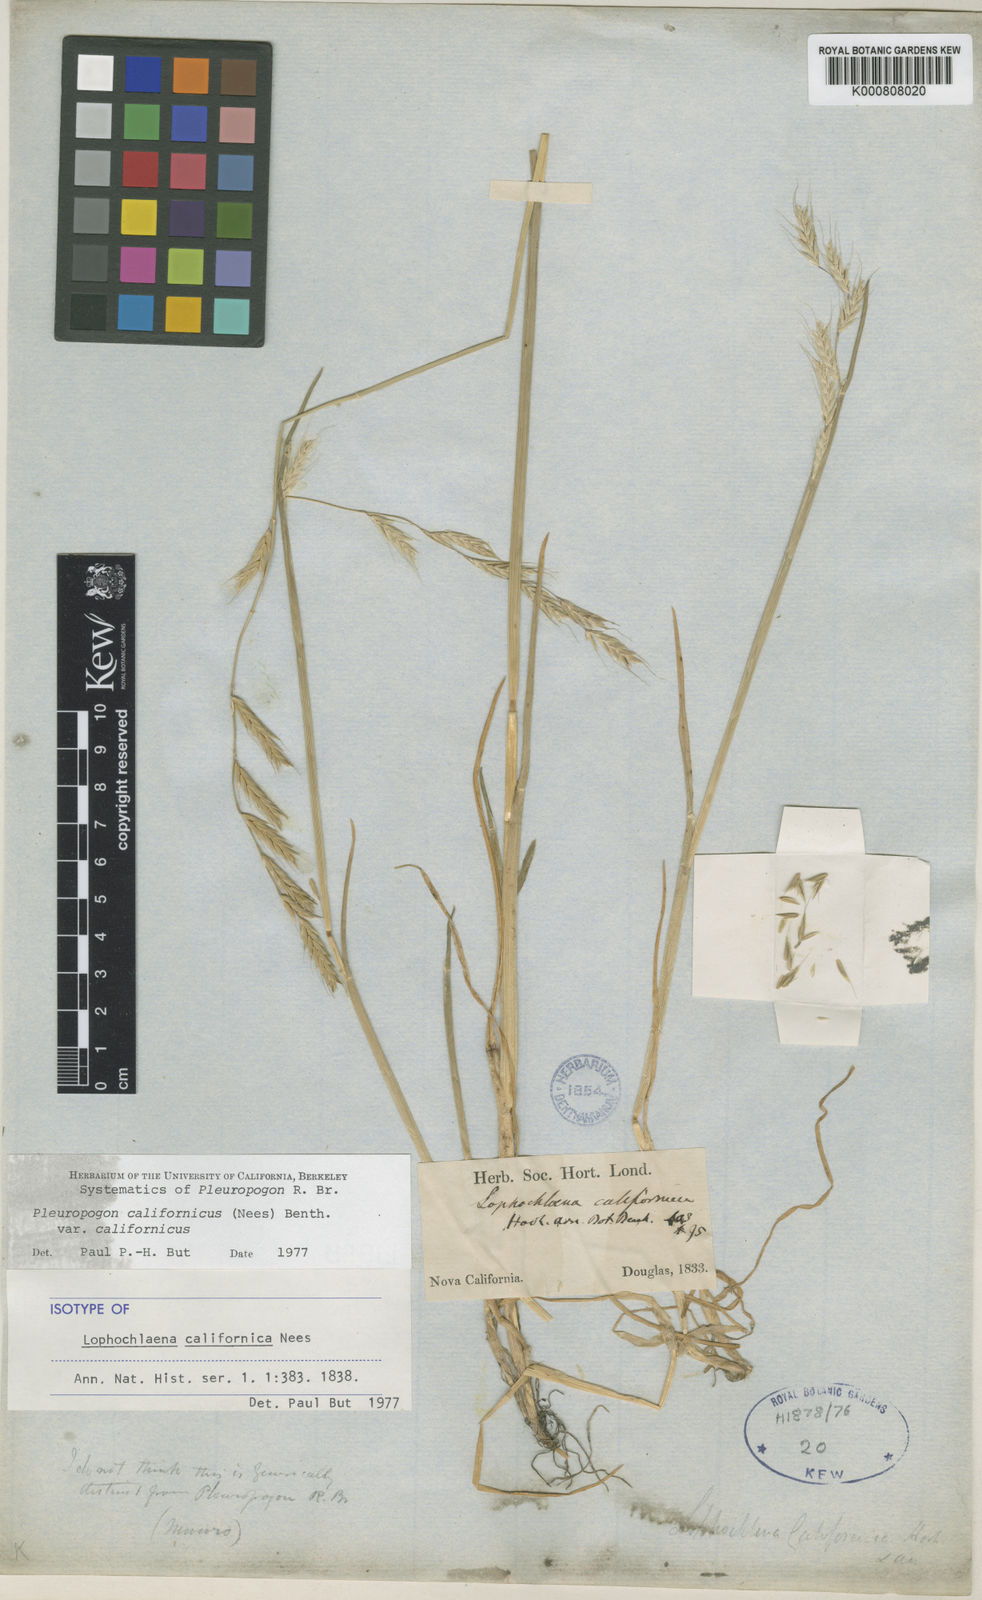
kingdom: Plantae
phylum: Tracheophyta
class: Liliopsida
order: Poales
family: Poaceae
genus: Pleuropogon
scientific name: Pleuropogon davyi
